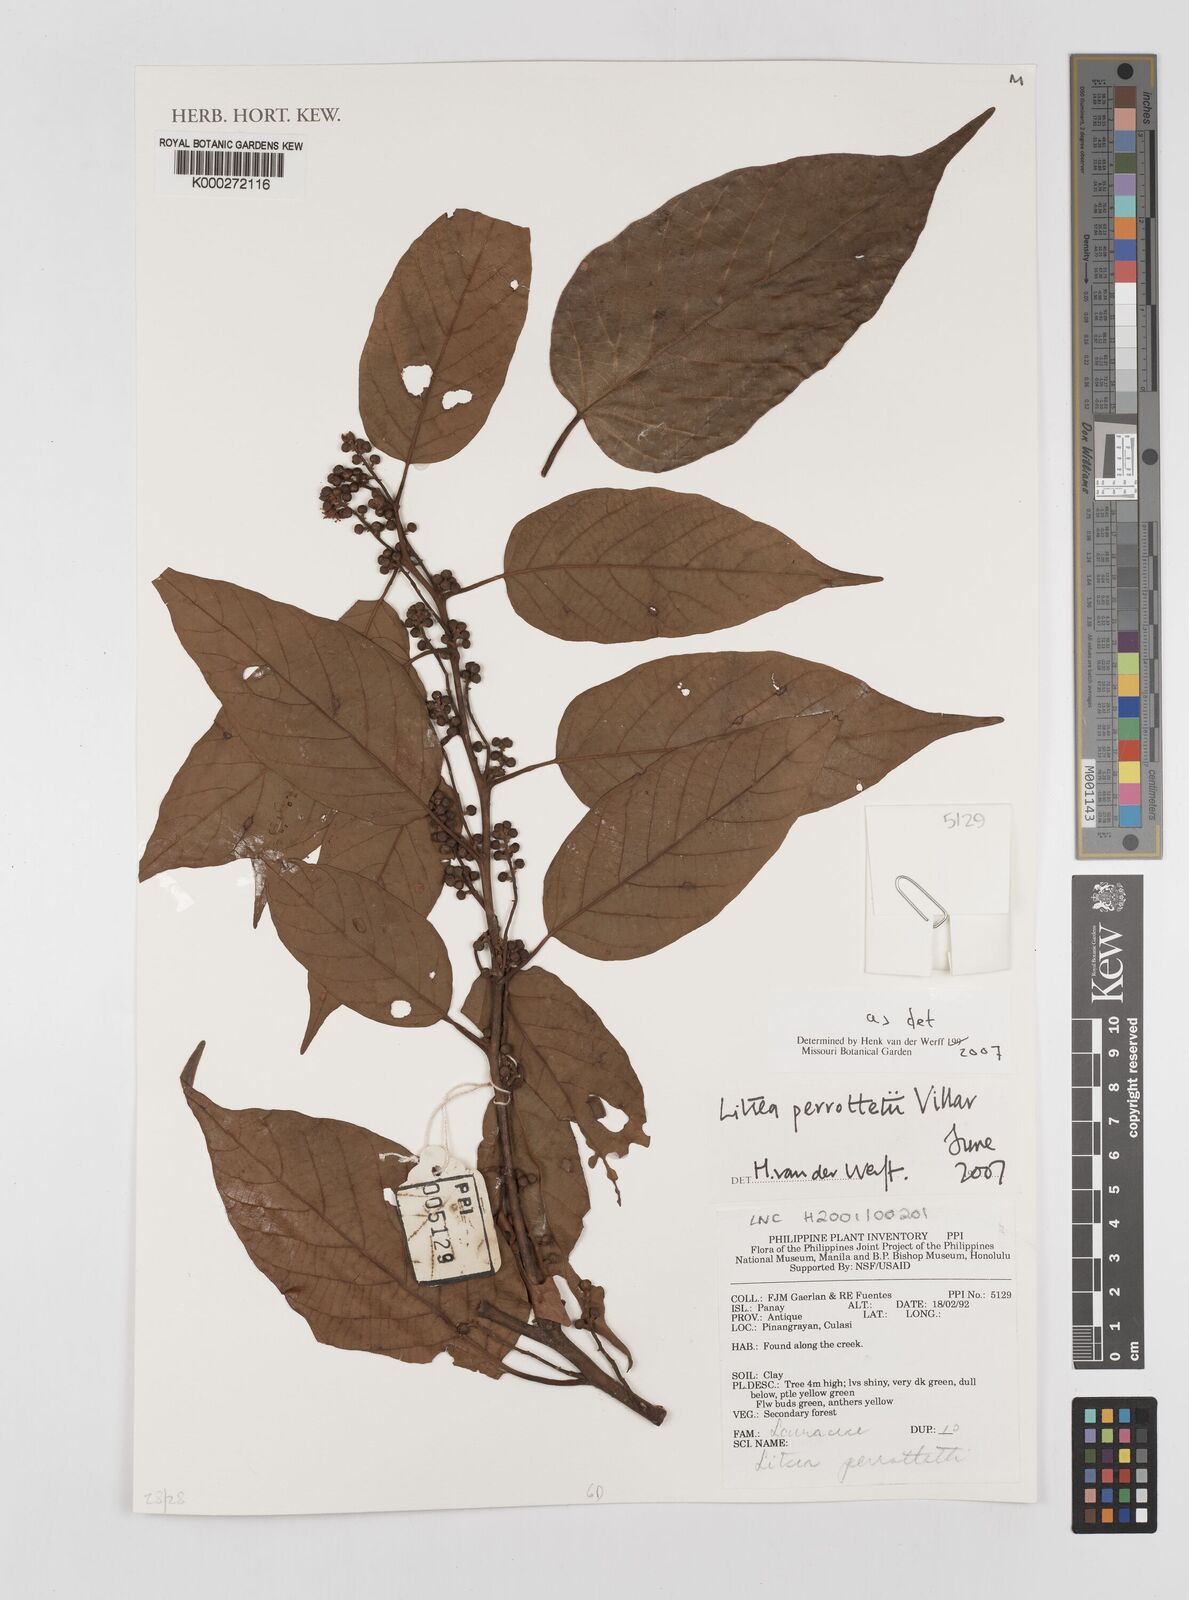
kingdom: Plantae
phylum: Tracheophyta
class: Magnoliopsida
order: Laurales
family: Lauraceae
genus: Litsea
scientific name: Litsea cordata
